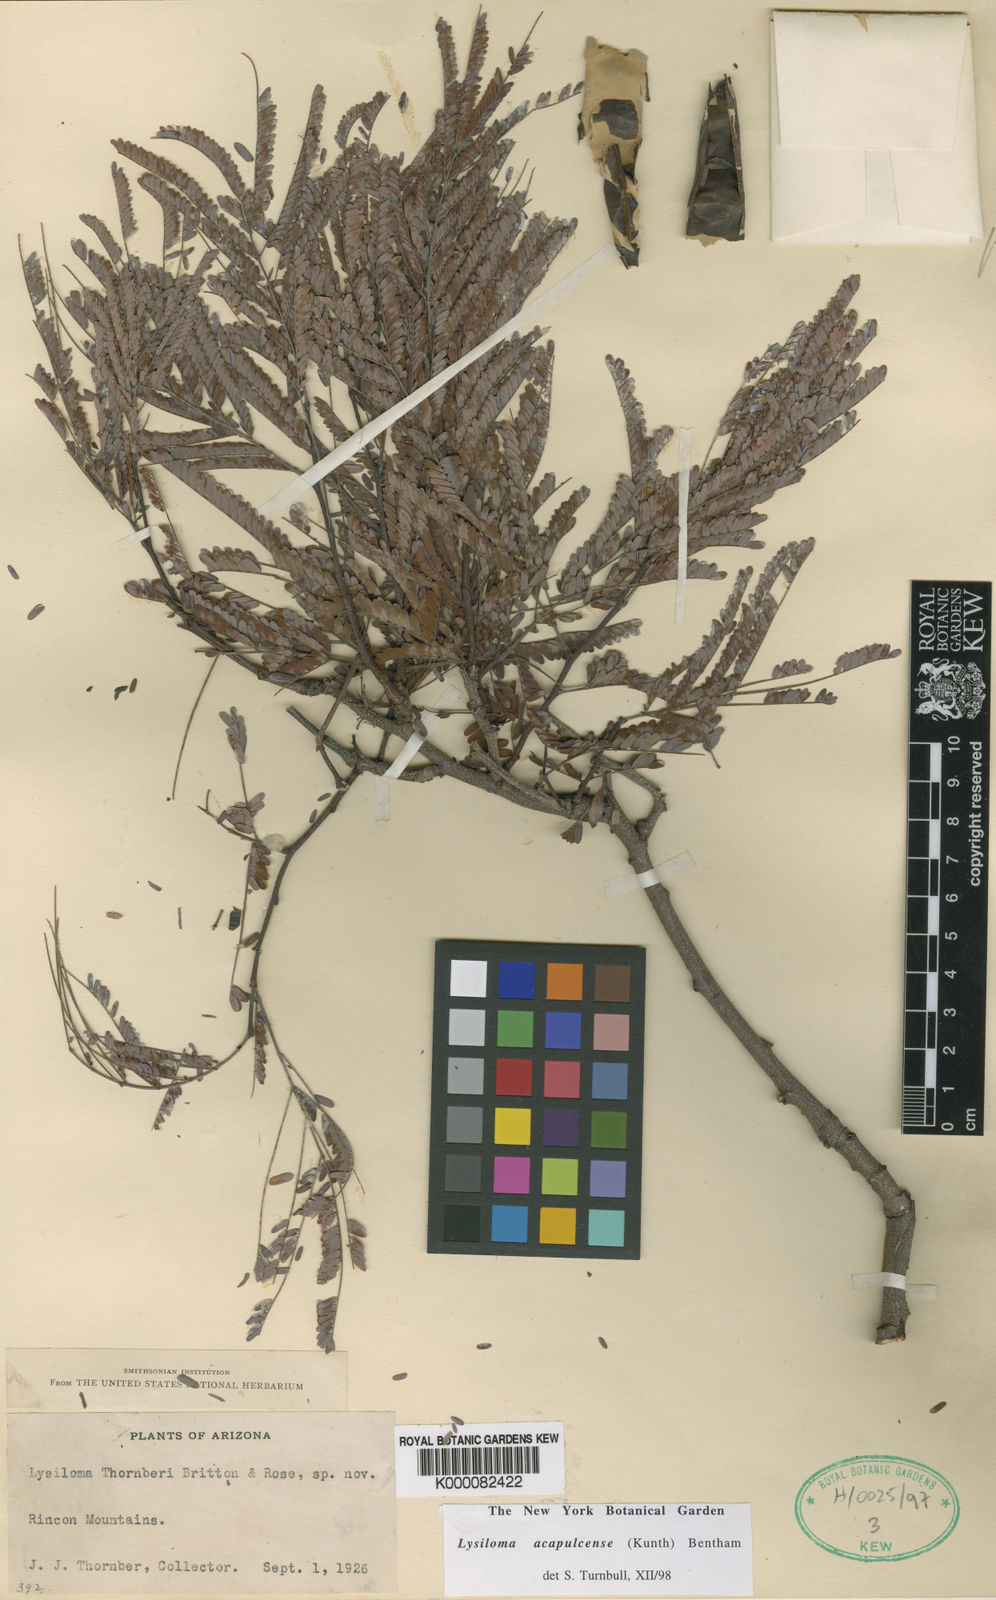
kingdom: Plantae
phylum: Tracheophyta
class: Magnoliopsida
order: Fabales
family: Fabaceae
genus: Lysiloma
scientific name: Lysiloma divaricatum
